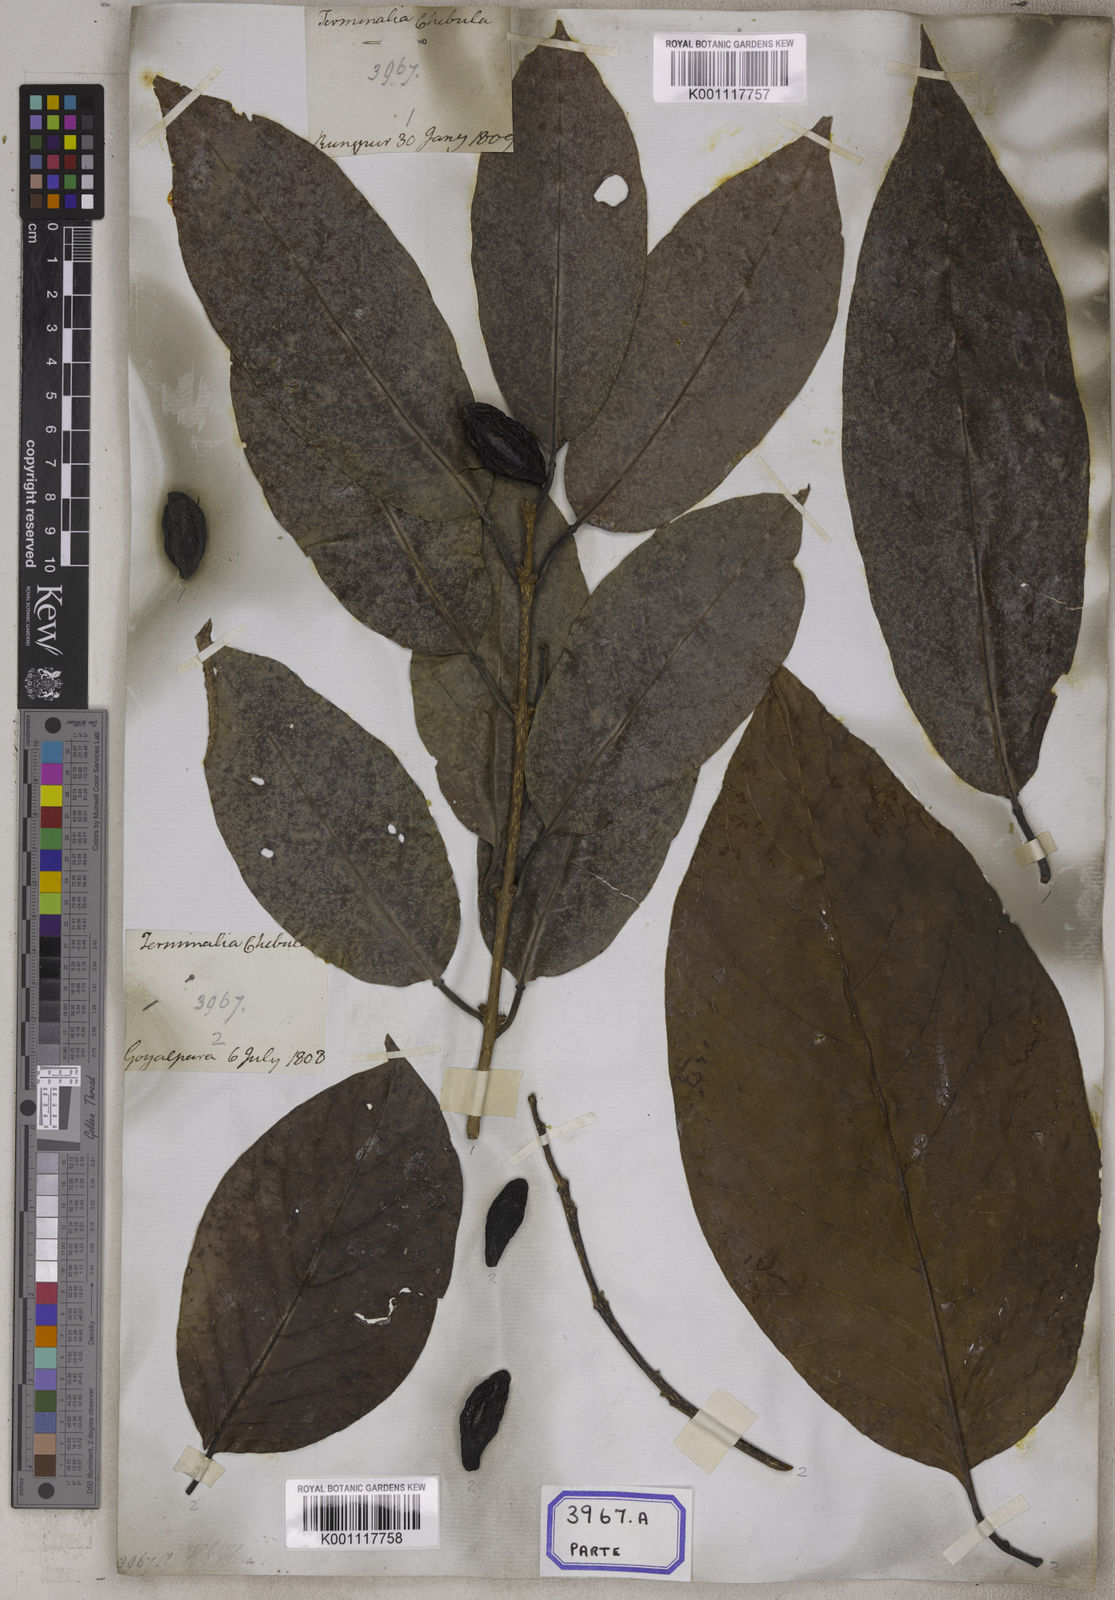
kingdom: Plantae
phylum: Tracheophyta
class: Magnoliopsida
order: Myrtales
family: Combretaceae
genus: Terminalia
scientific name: Terminalia chebula
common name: Myrobalan
